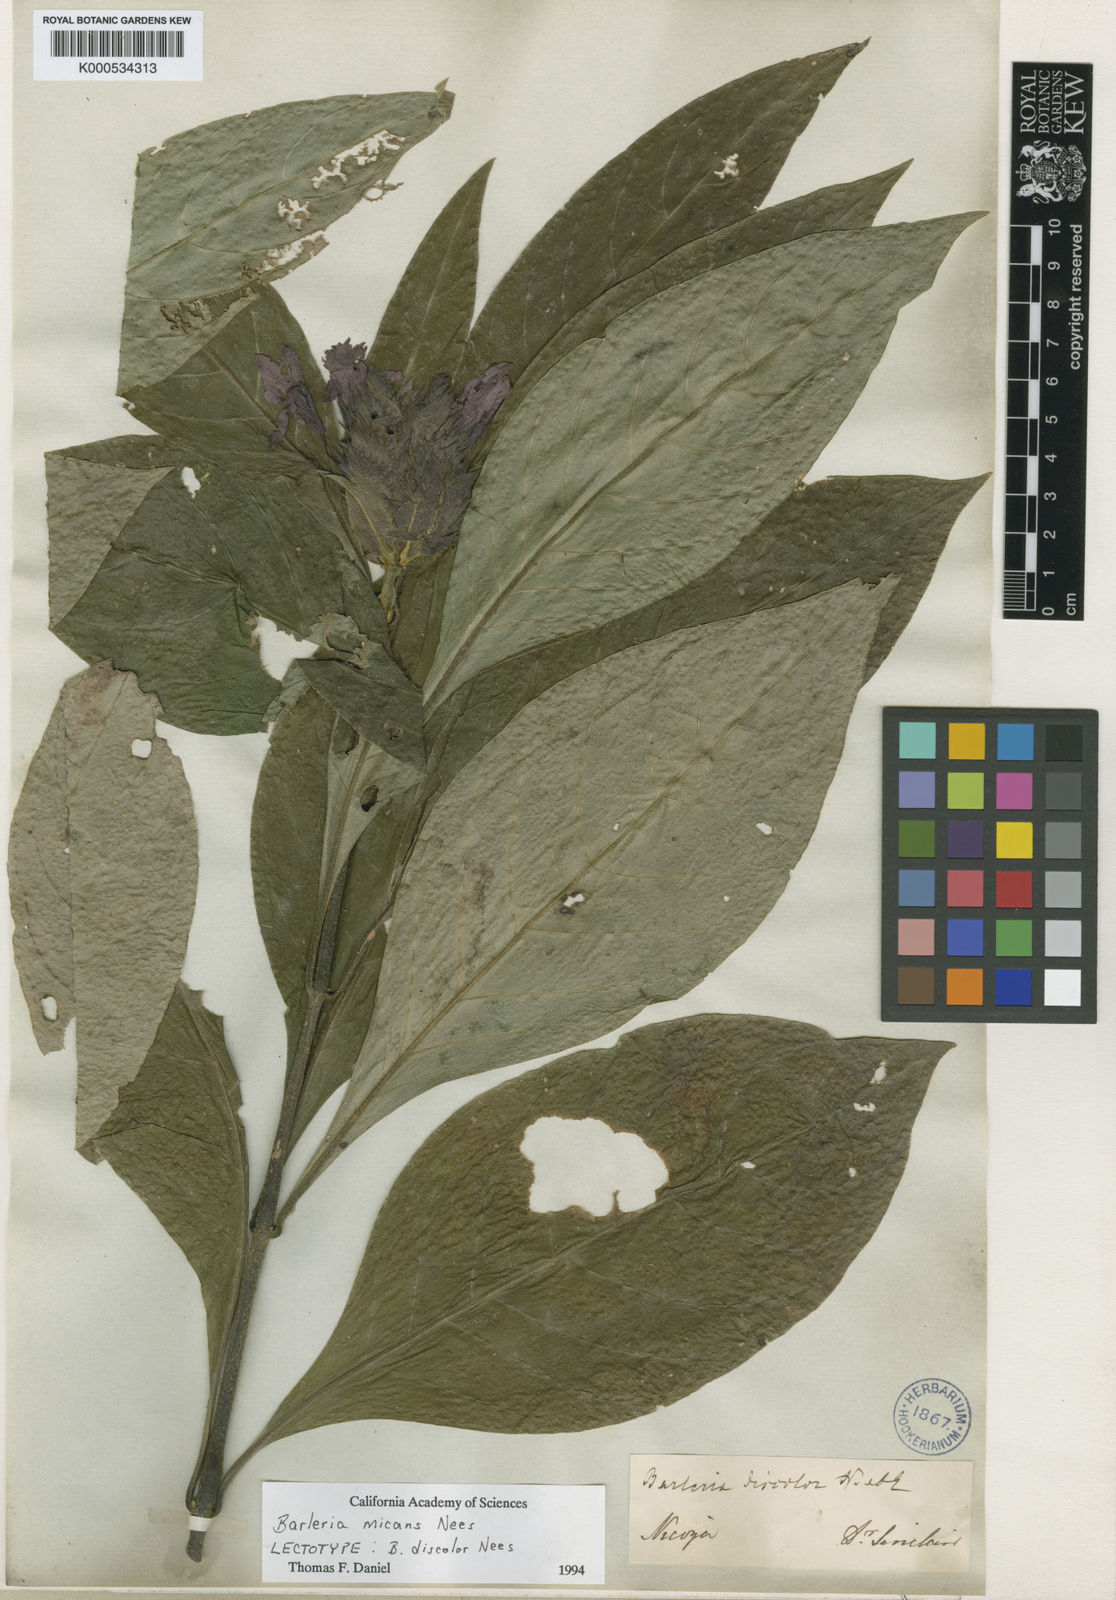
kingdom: Plantae
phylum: Tracheophyta
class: Magnoliopsida
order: Lamiales
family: Acanthaceae
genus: Barleria
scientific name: Barleria oenotheroides
